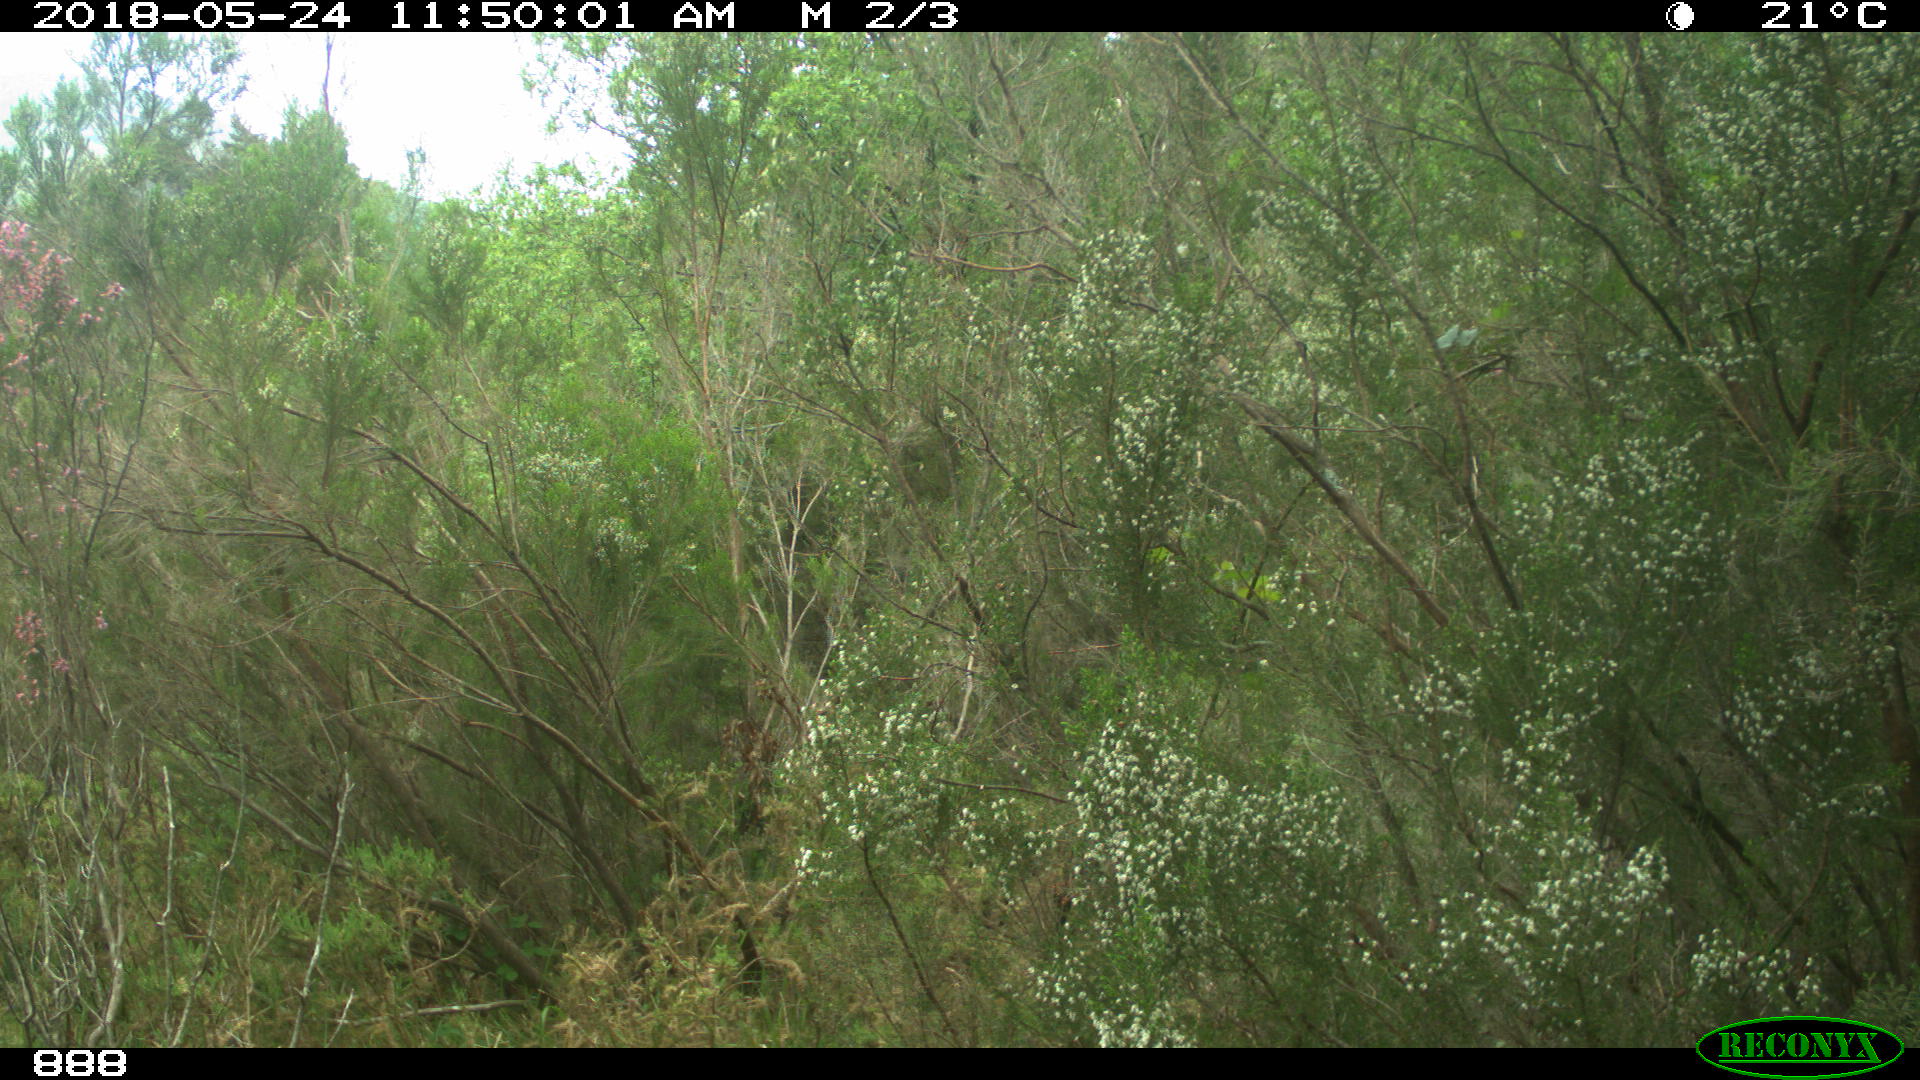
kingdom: Animalia
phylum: Chordata
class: Mammalia
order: Artiodactyla
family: Bovidae
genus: Bos
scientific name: Bos taurus
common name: Domesticated cattle
